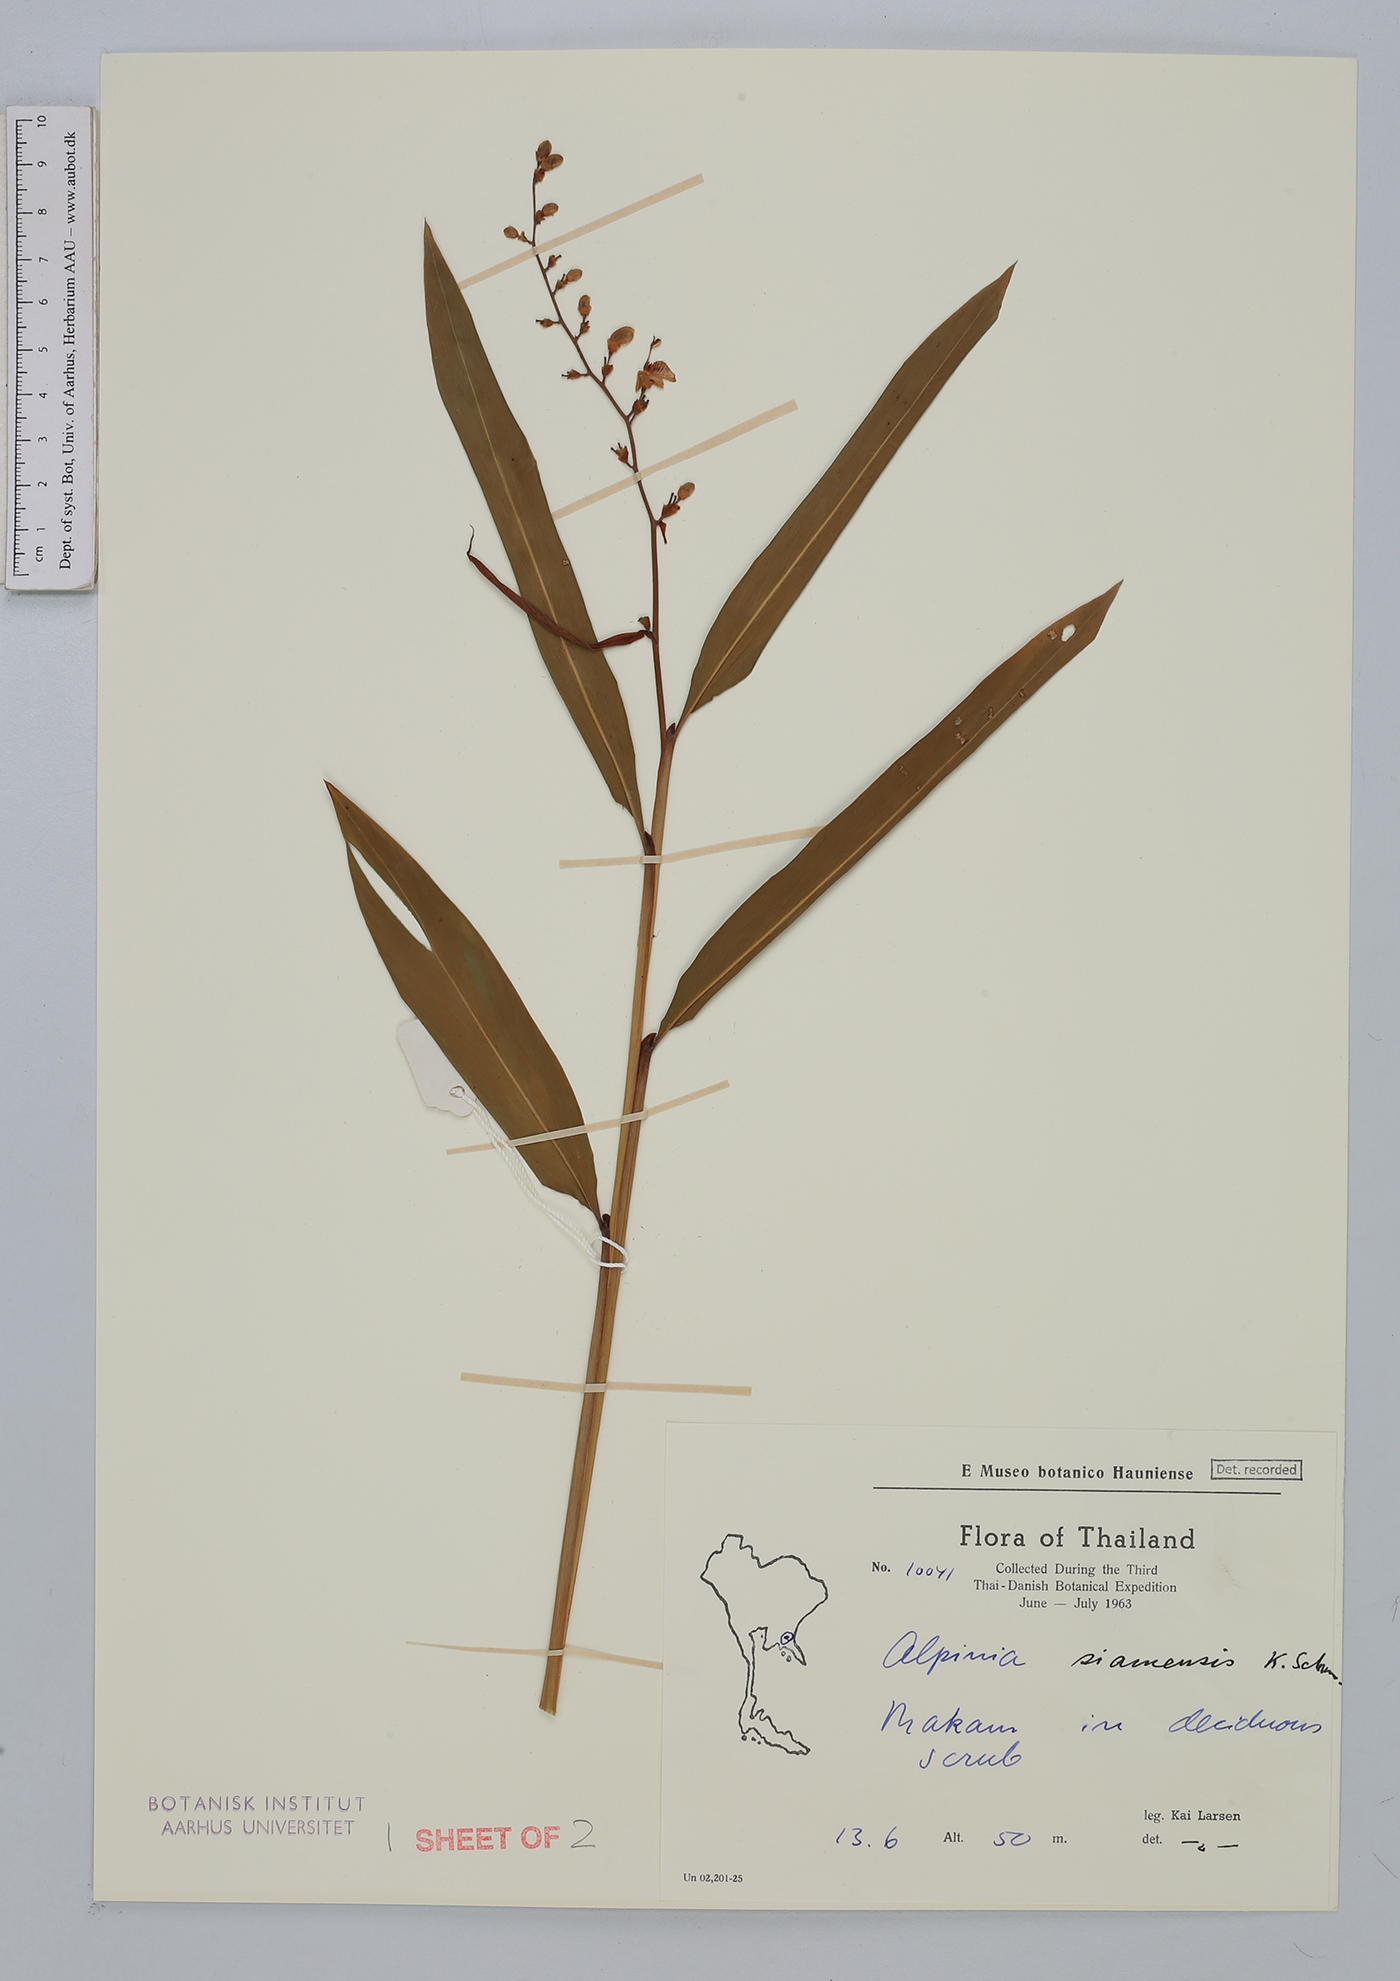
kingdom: Plantae
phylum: Tracheophyta
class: Liliopsida
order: Zingiberales
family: Zingiberaceae
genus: Alpinia
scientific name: Alpinia siamensis
